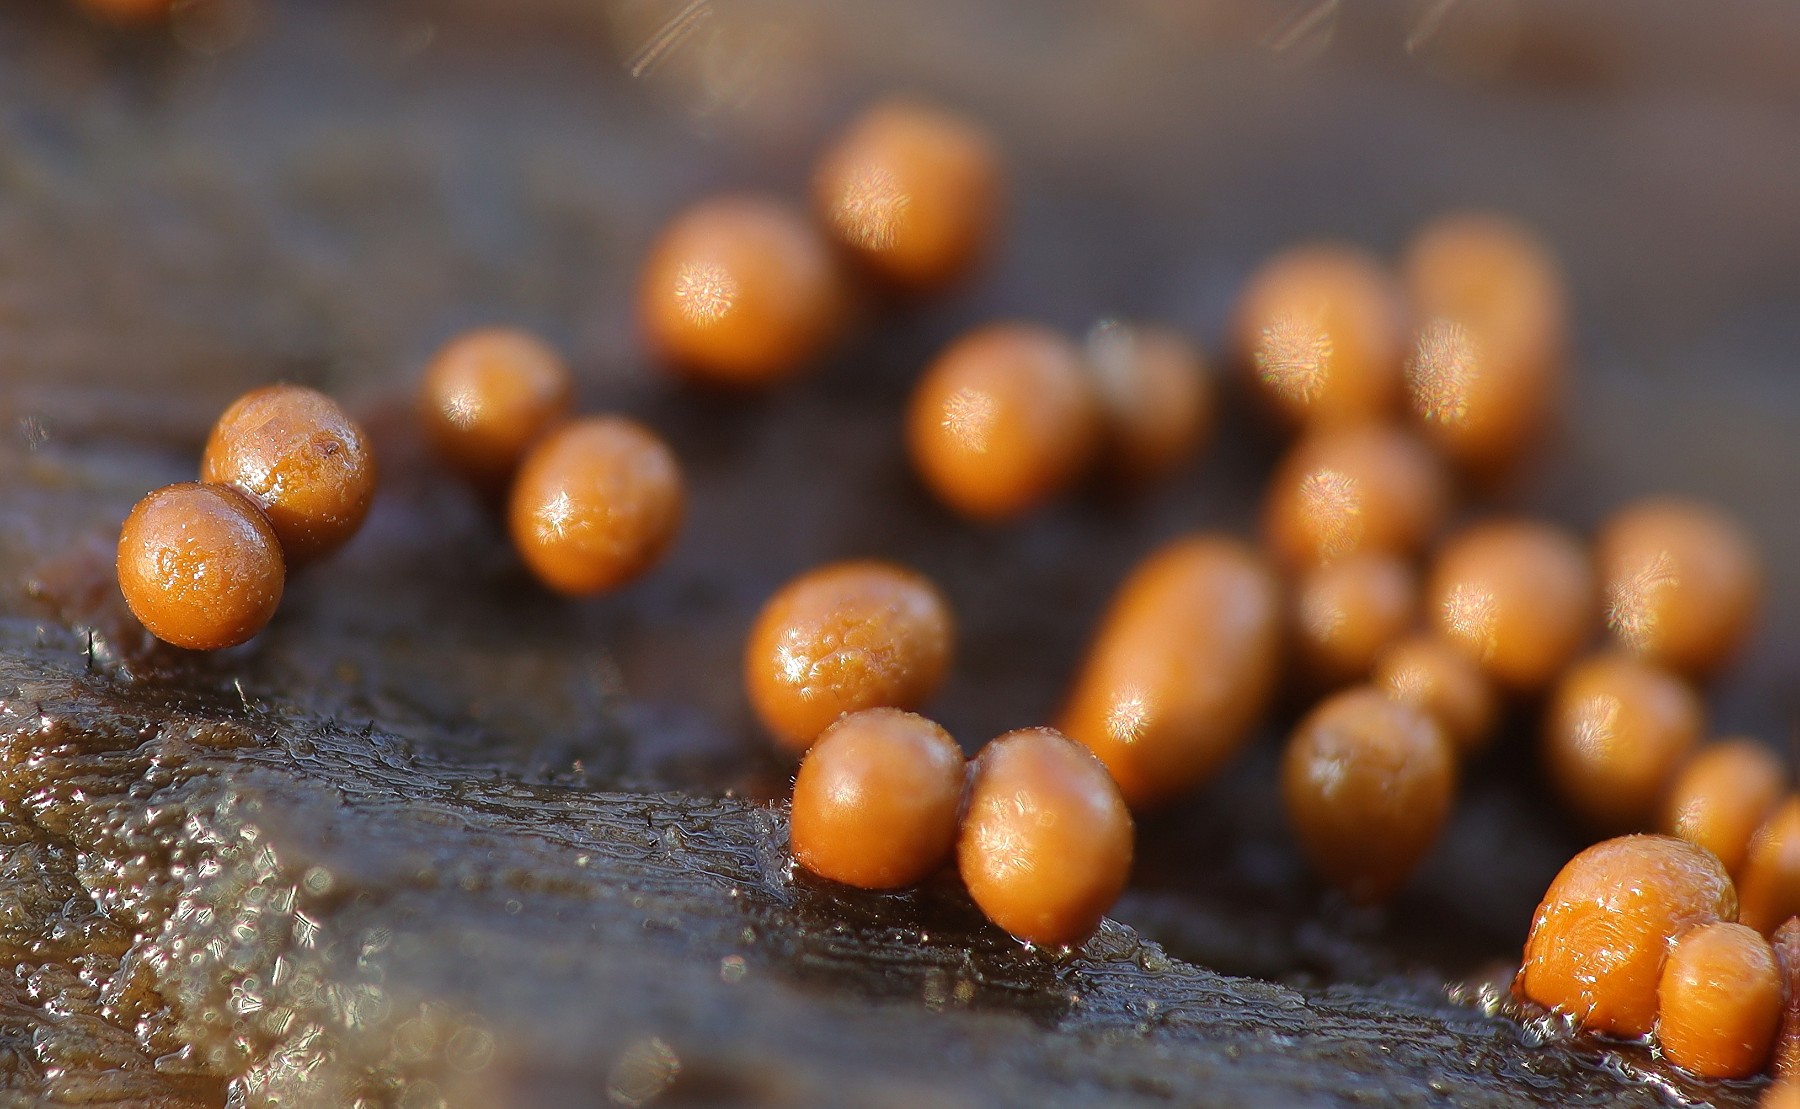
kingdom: Protozoa
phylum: Mycetozoa
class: Myxomycetes
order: Trichiales
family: Trichiaceae
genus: Trichia
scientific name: Trichia
